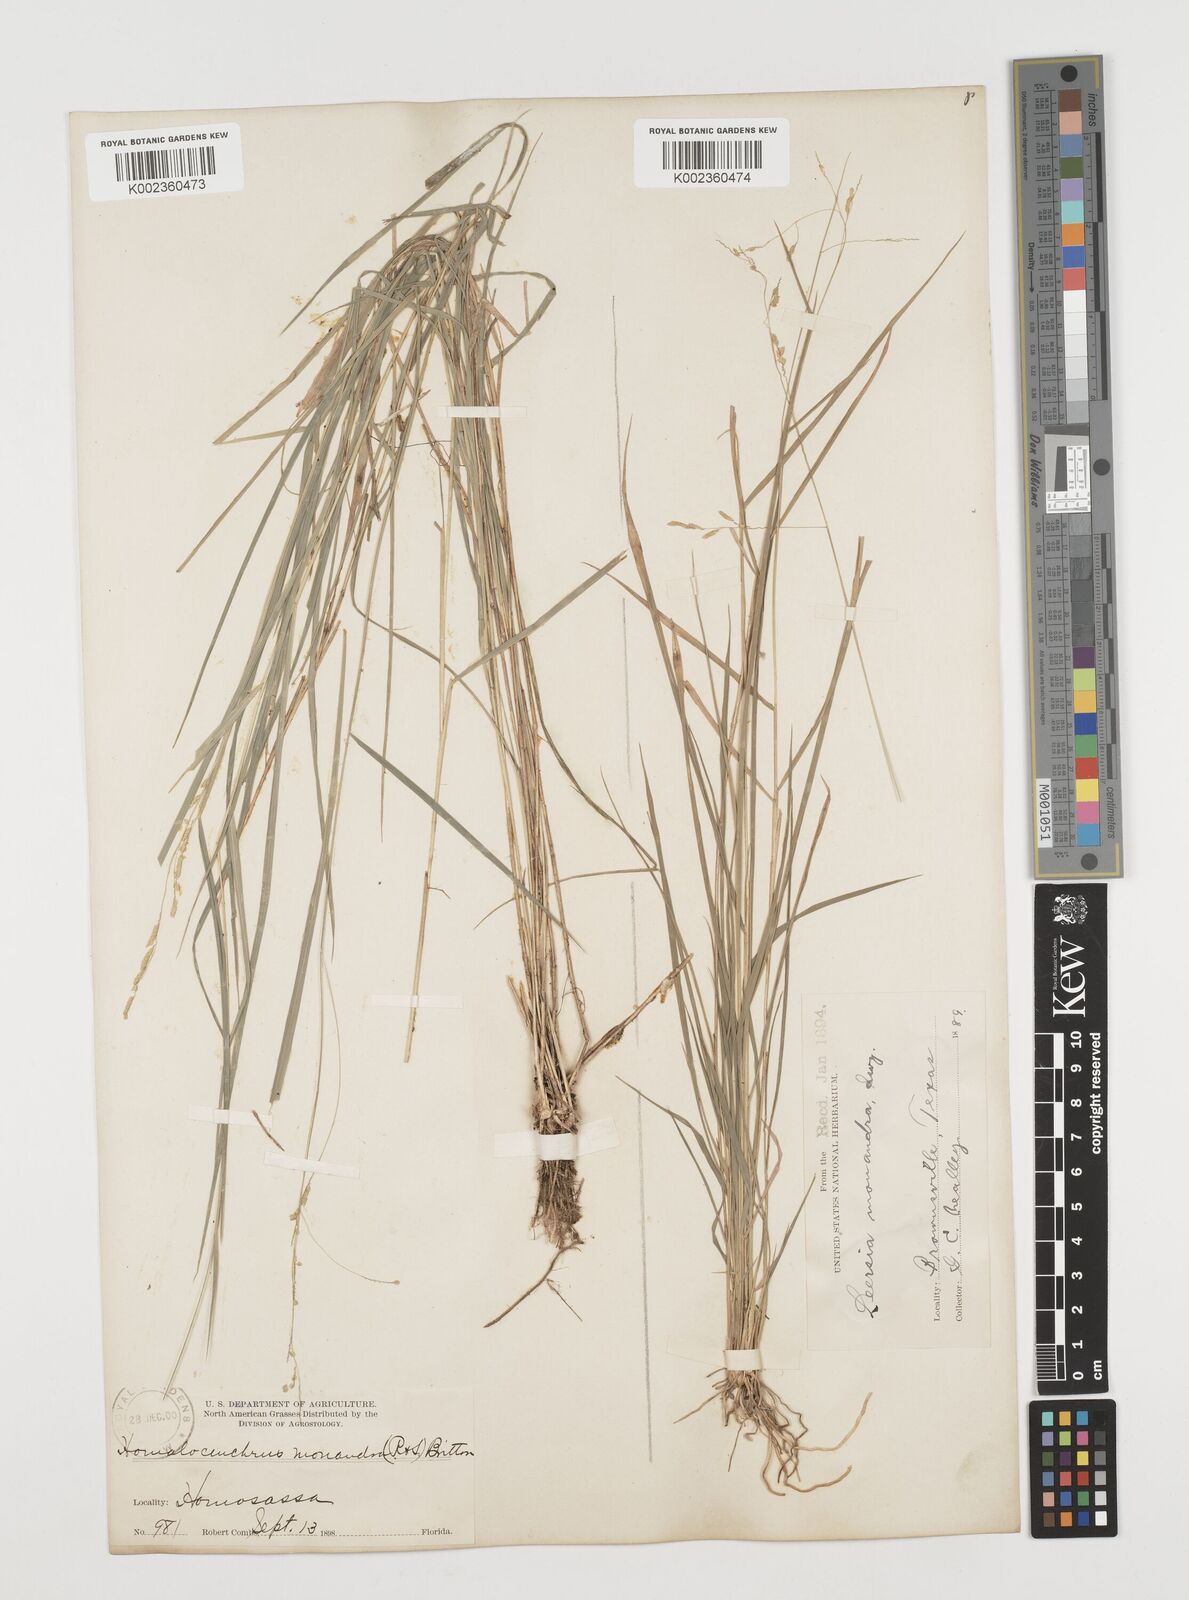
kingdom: Plantae
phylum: Tracheophyta
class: Liliopsida
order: Poales
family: Poaceae
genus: Leersia
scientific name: Leersia monandra
